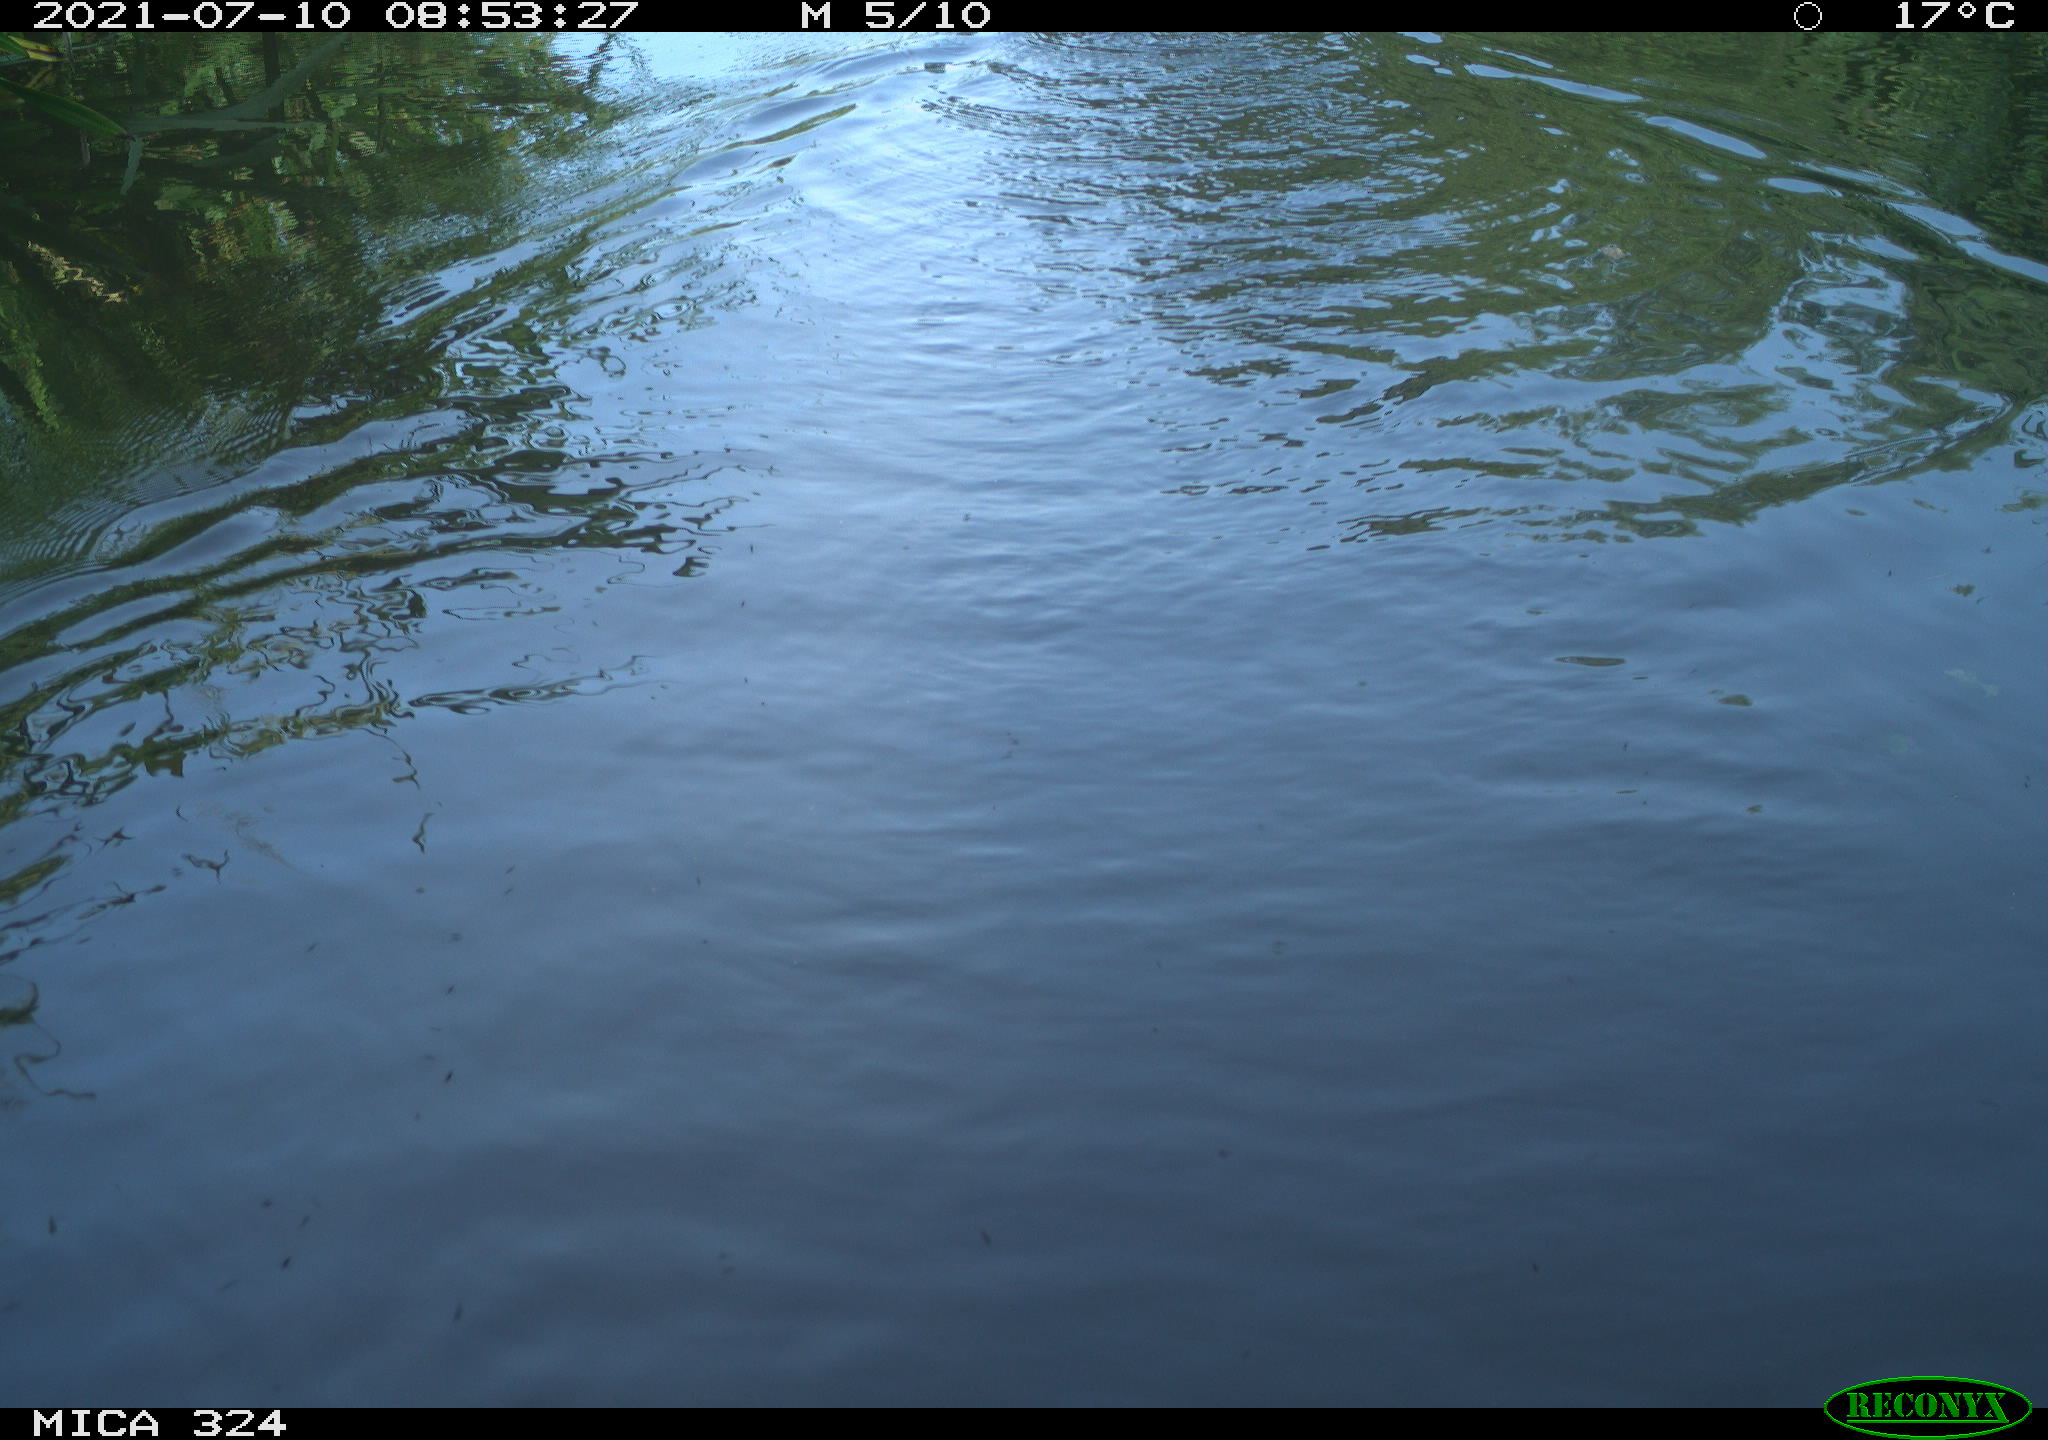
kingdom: Animalia
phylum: Chordata
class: Mammalia
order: Rodentia
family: Cricetidae
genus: Ondatra
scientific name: Ondatra zibethicus
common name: Muskrat
